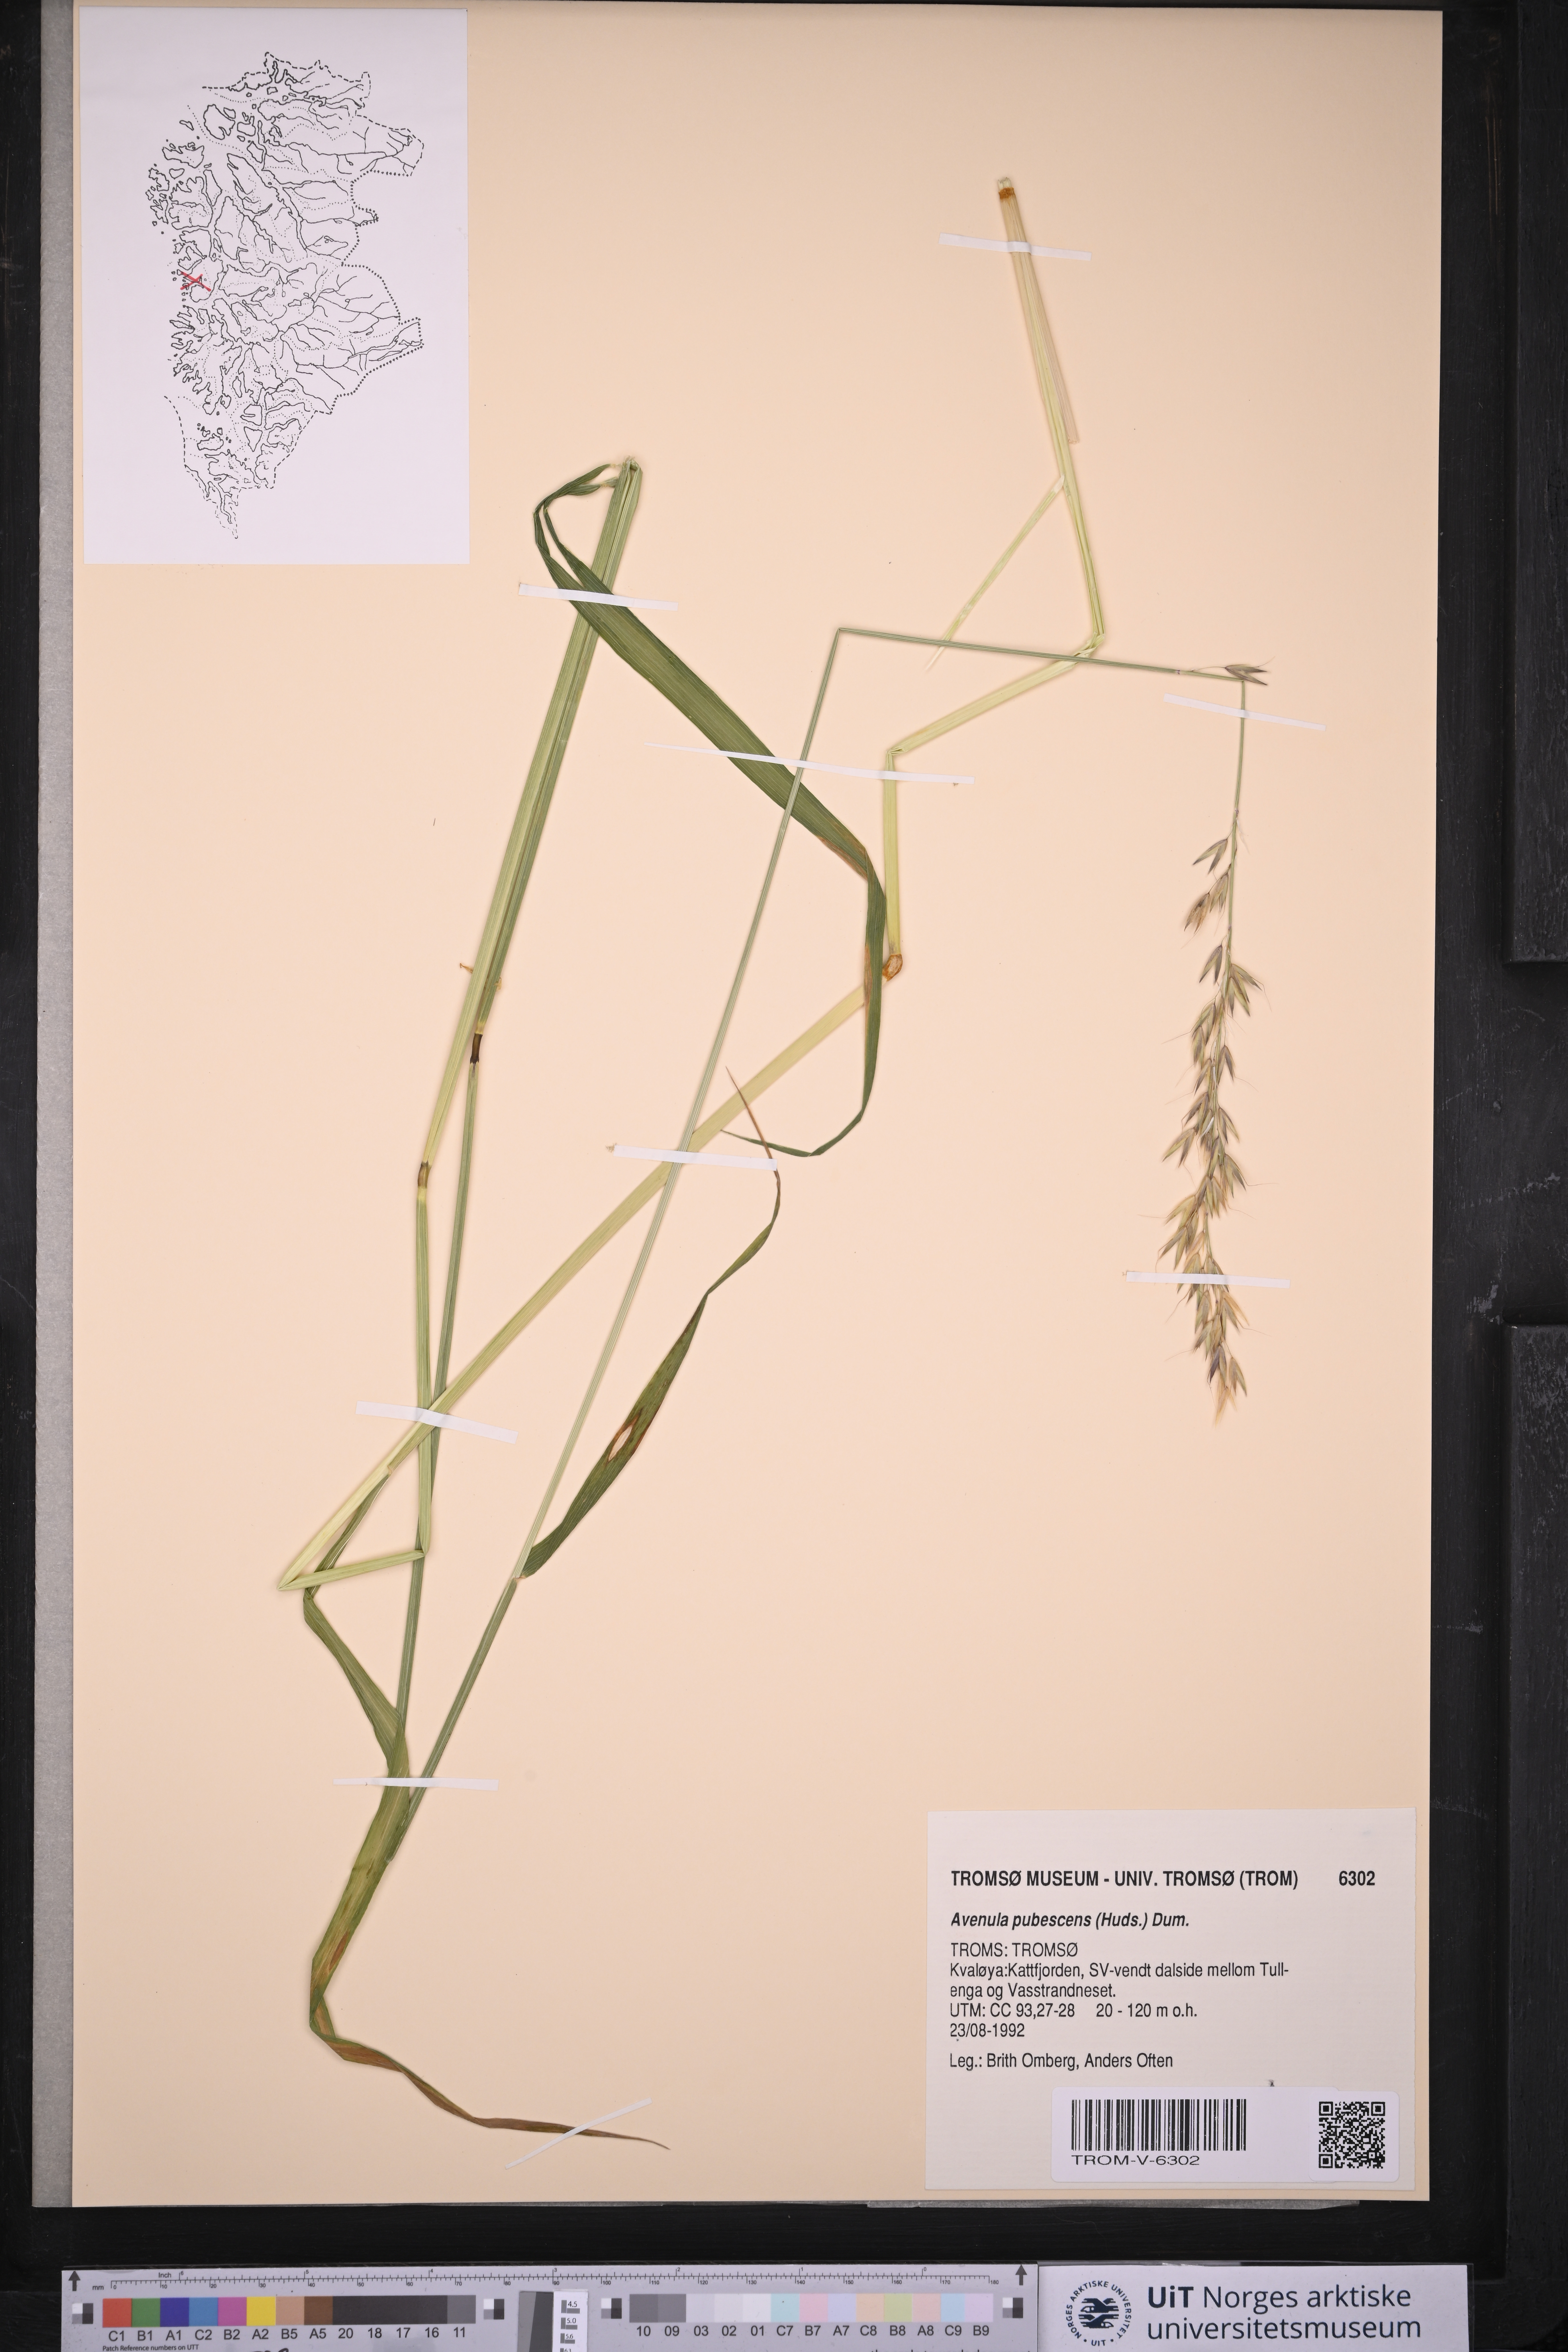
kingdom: Plantae
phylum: Tracheophyta
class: Liliopsida
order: Poales
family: Poaceae
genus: Avenula
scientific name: Avenula pubescens
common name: Downy alpine oatgrass
